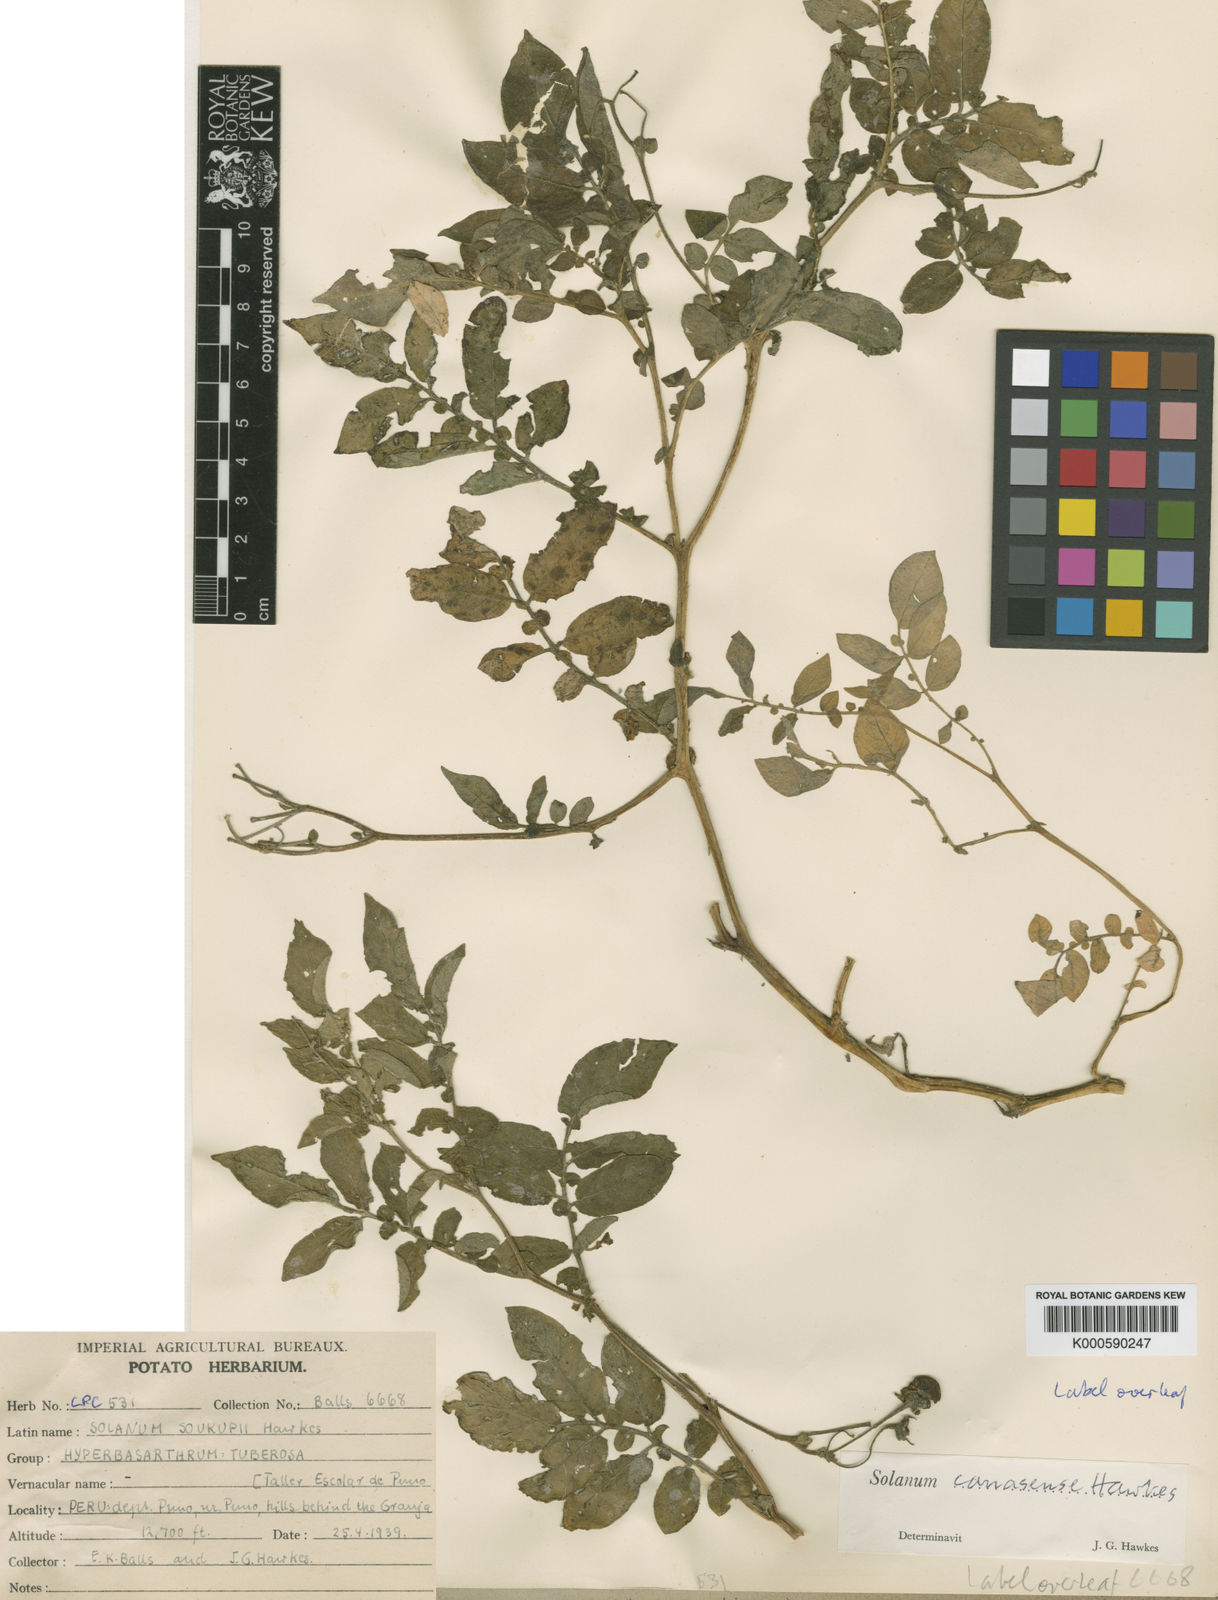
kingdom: Plantae
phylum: Tracheophyta
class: Magnoliopsida
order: Solanales
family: Solanaceae
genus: Solanum
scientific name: Solanum candolleanum
